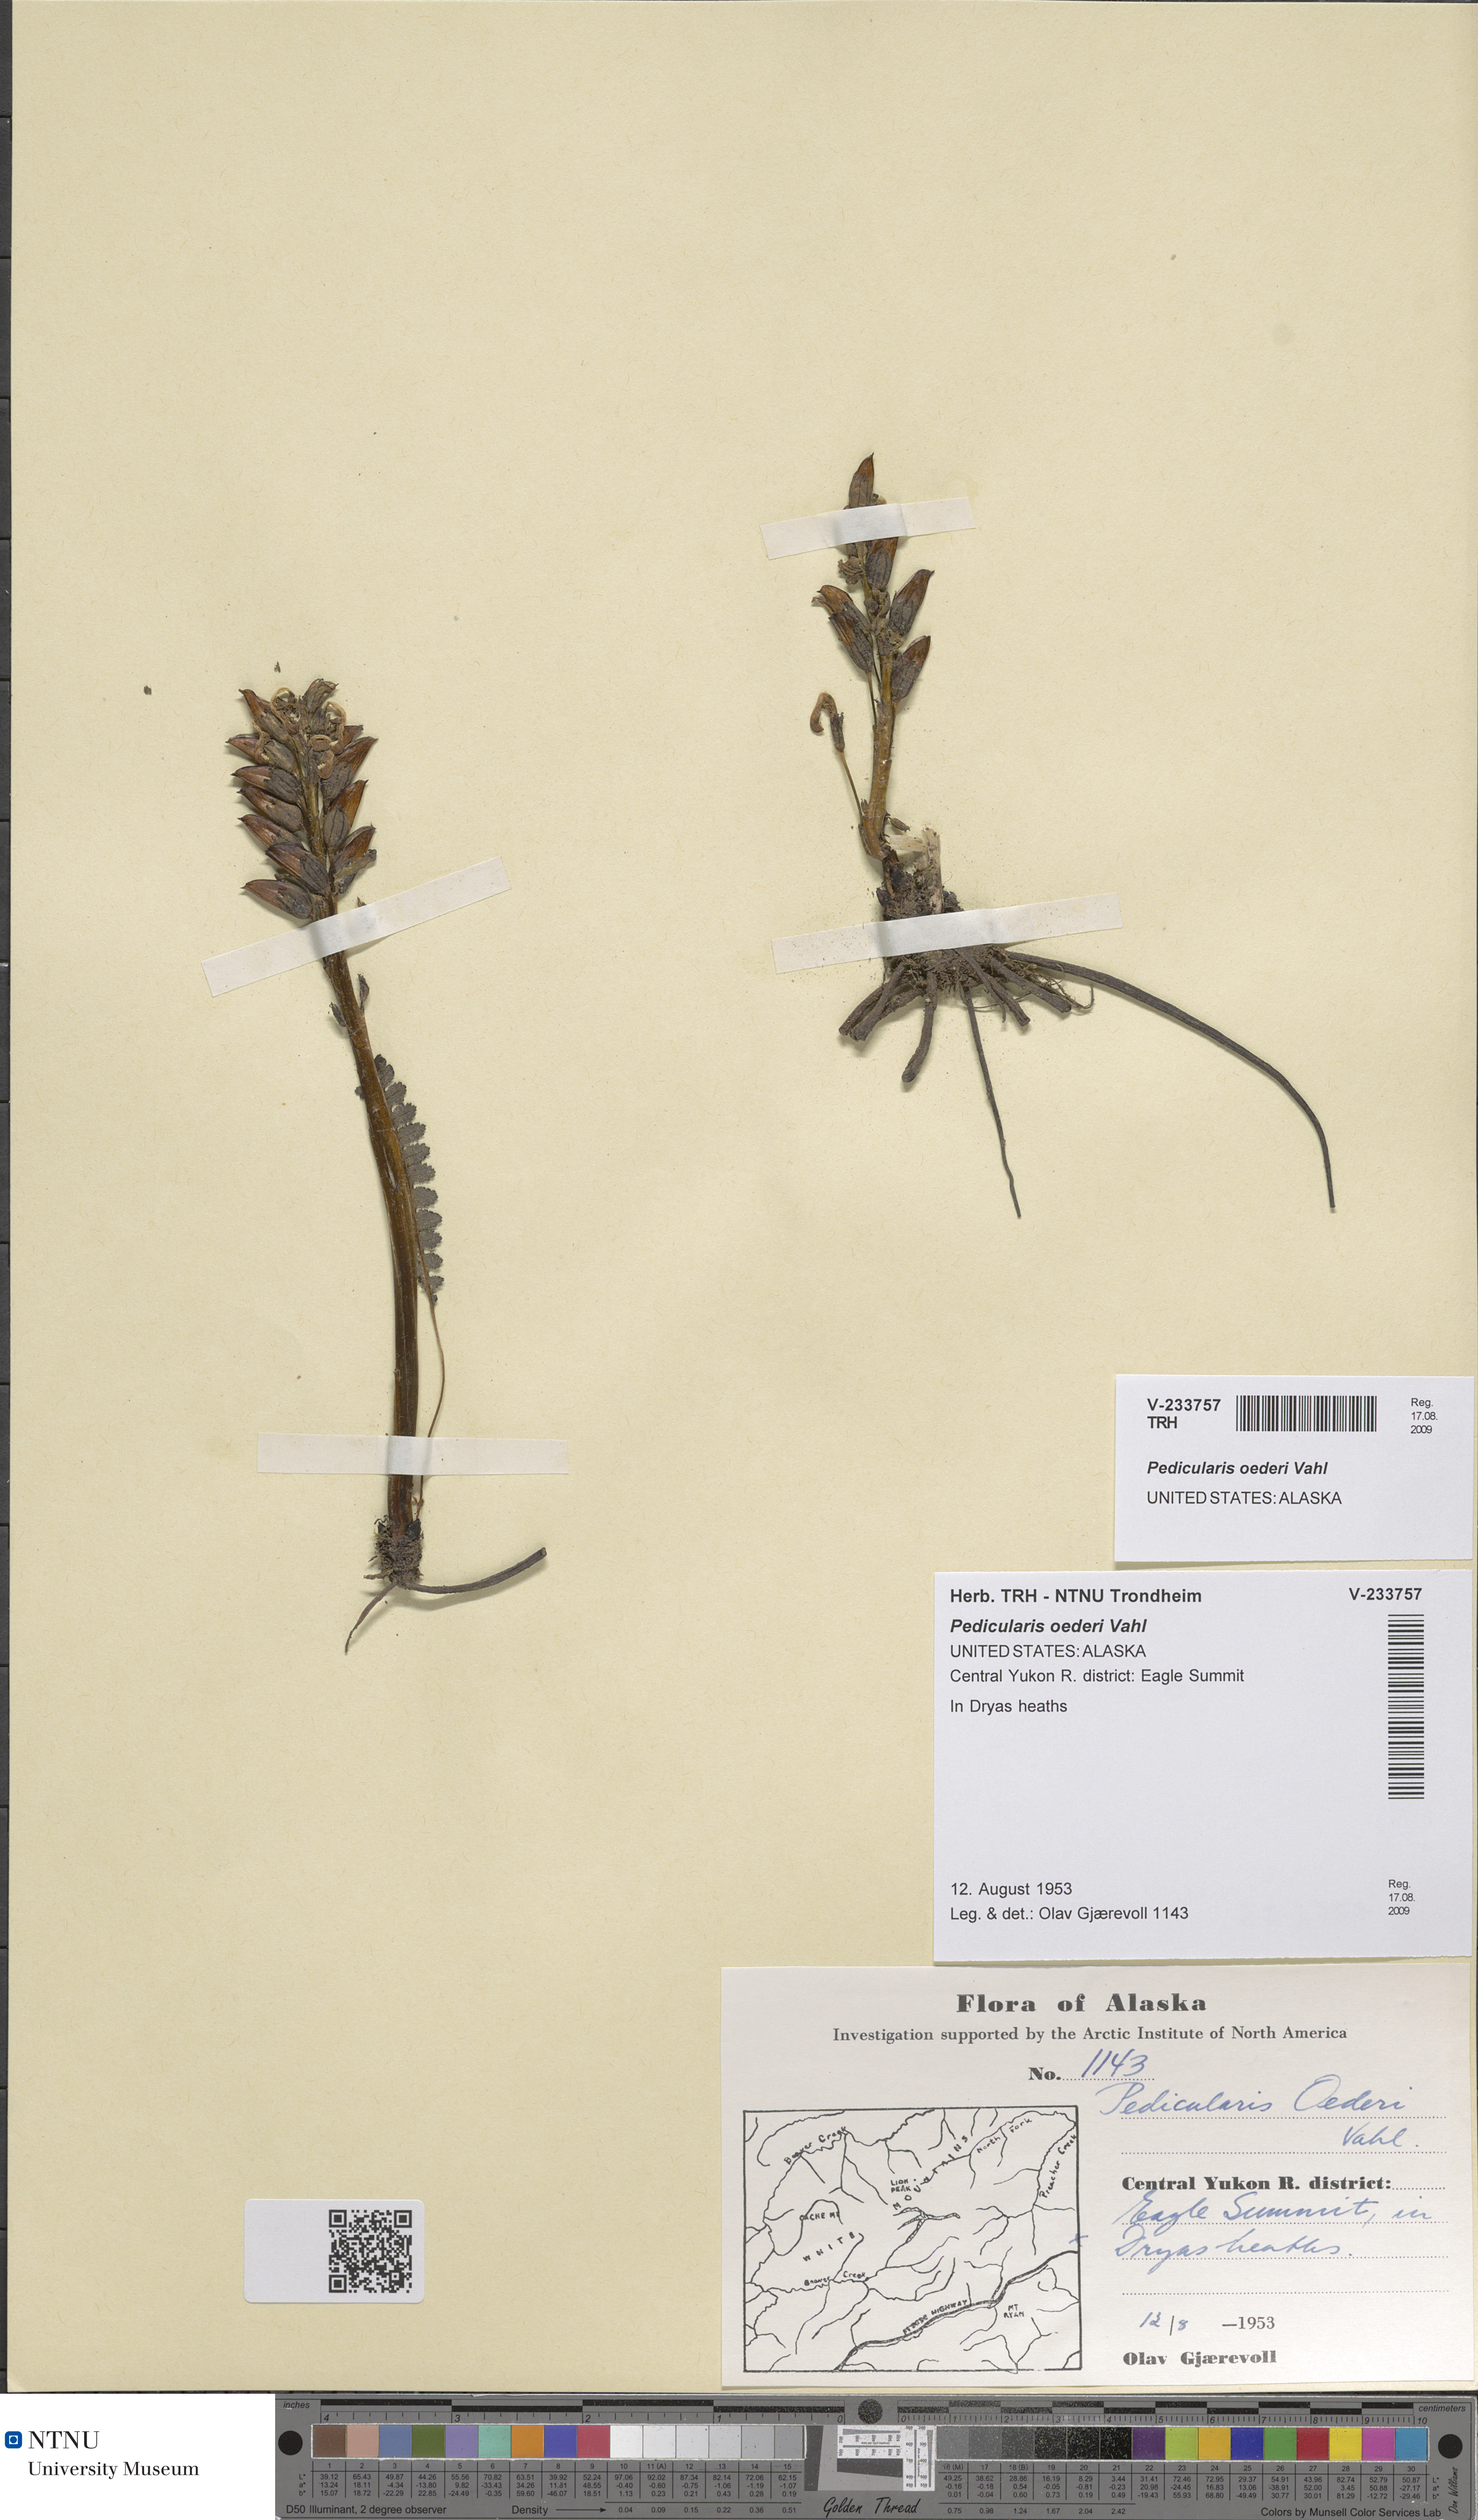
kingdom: Plantae
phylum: Tracheophyta
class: Magnoliopsida
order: Lamiales
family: Orobanchaceae
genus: Pedicularis
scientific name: Pedicularis oederi
